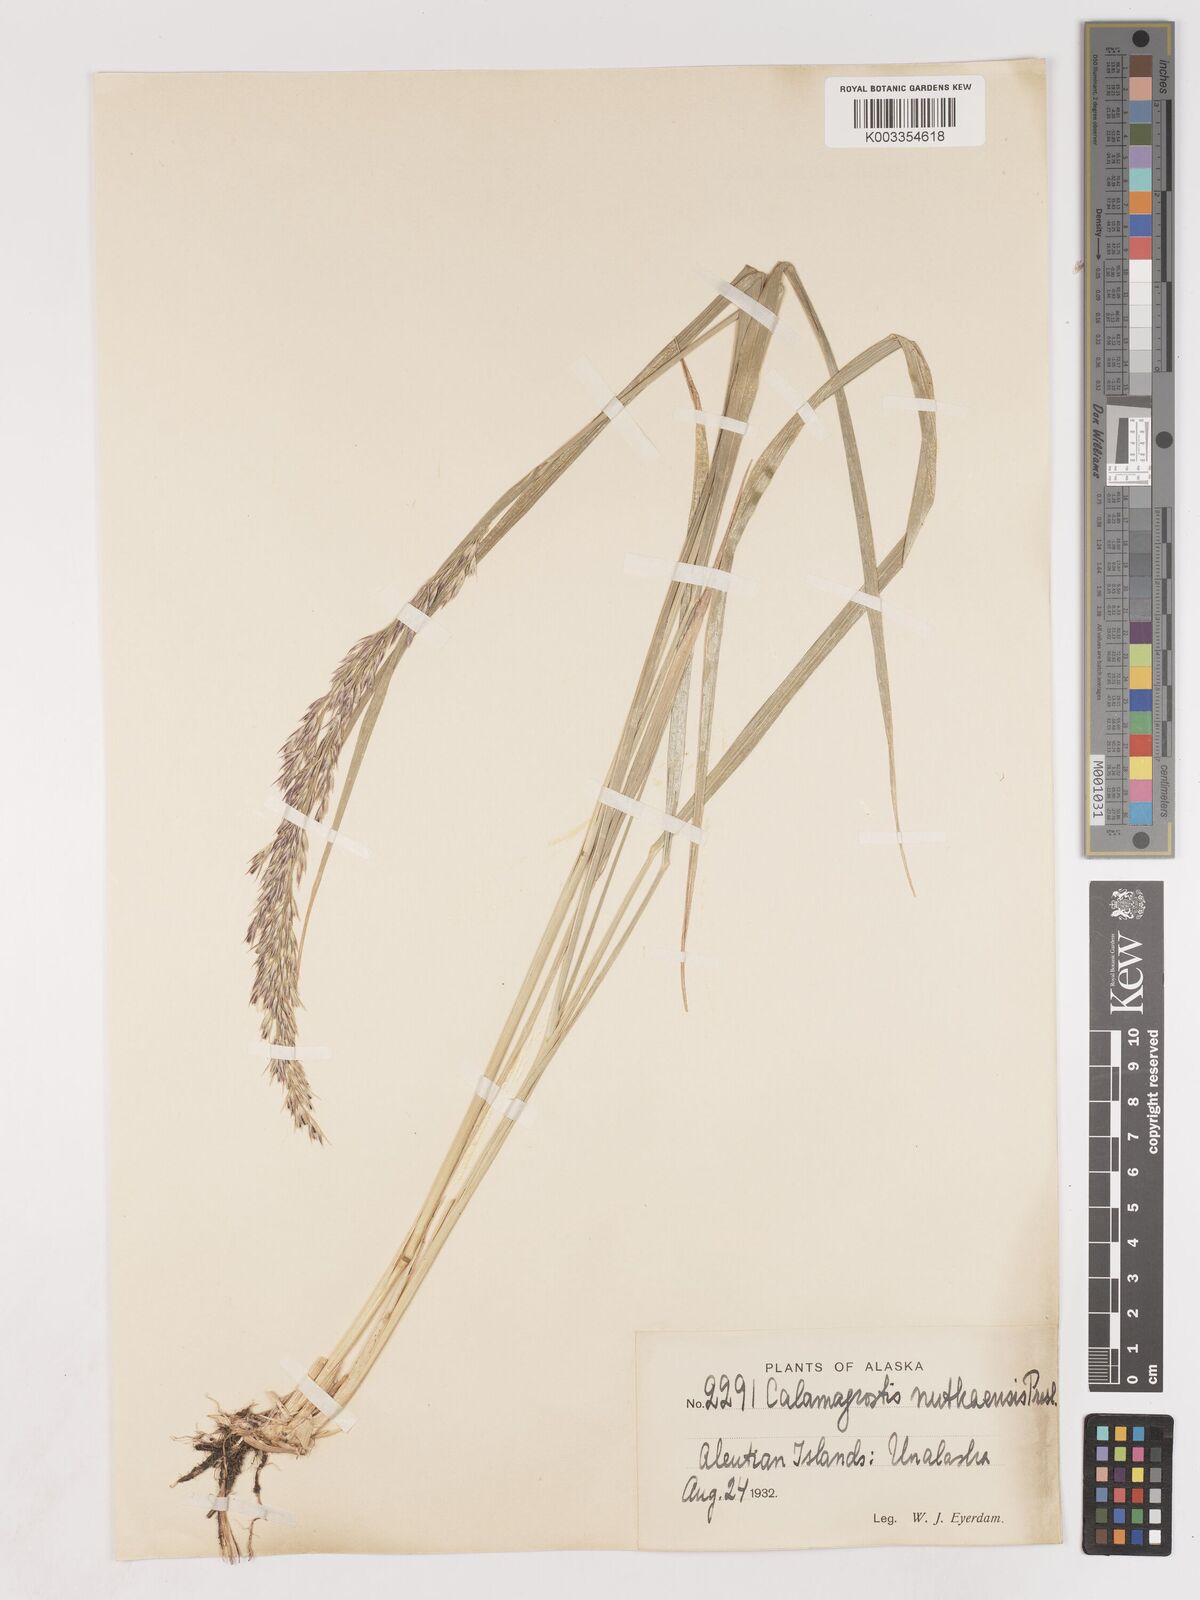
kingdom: Plantae
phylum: Tracheophyta
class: Liliopsida
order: Poales
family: Poaceae
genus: Calamagrostis
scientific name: Calamagrostis nutkaensis
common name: Pacific reed grass
